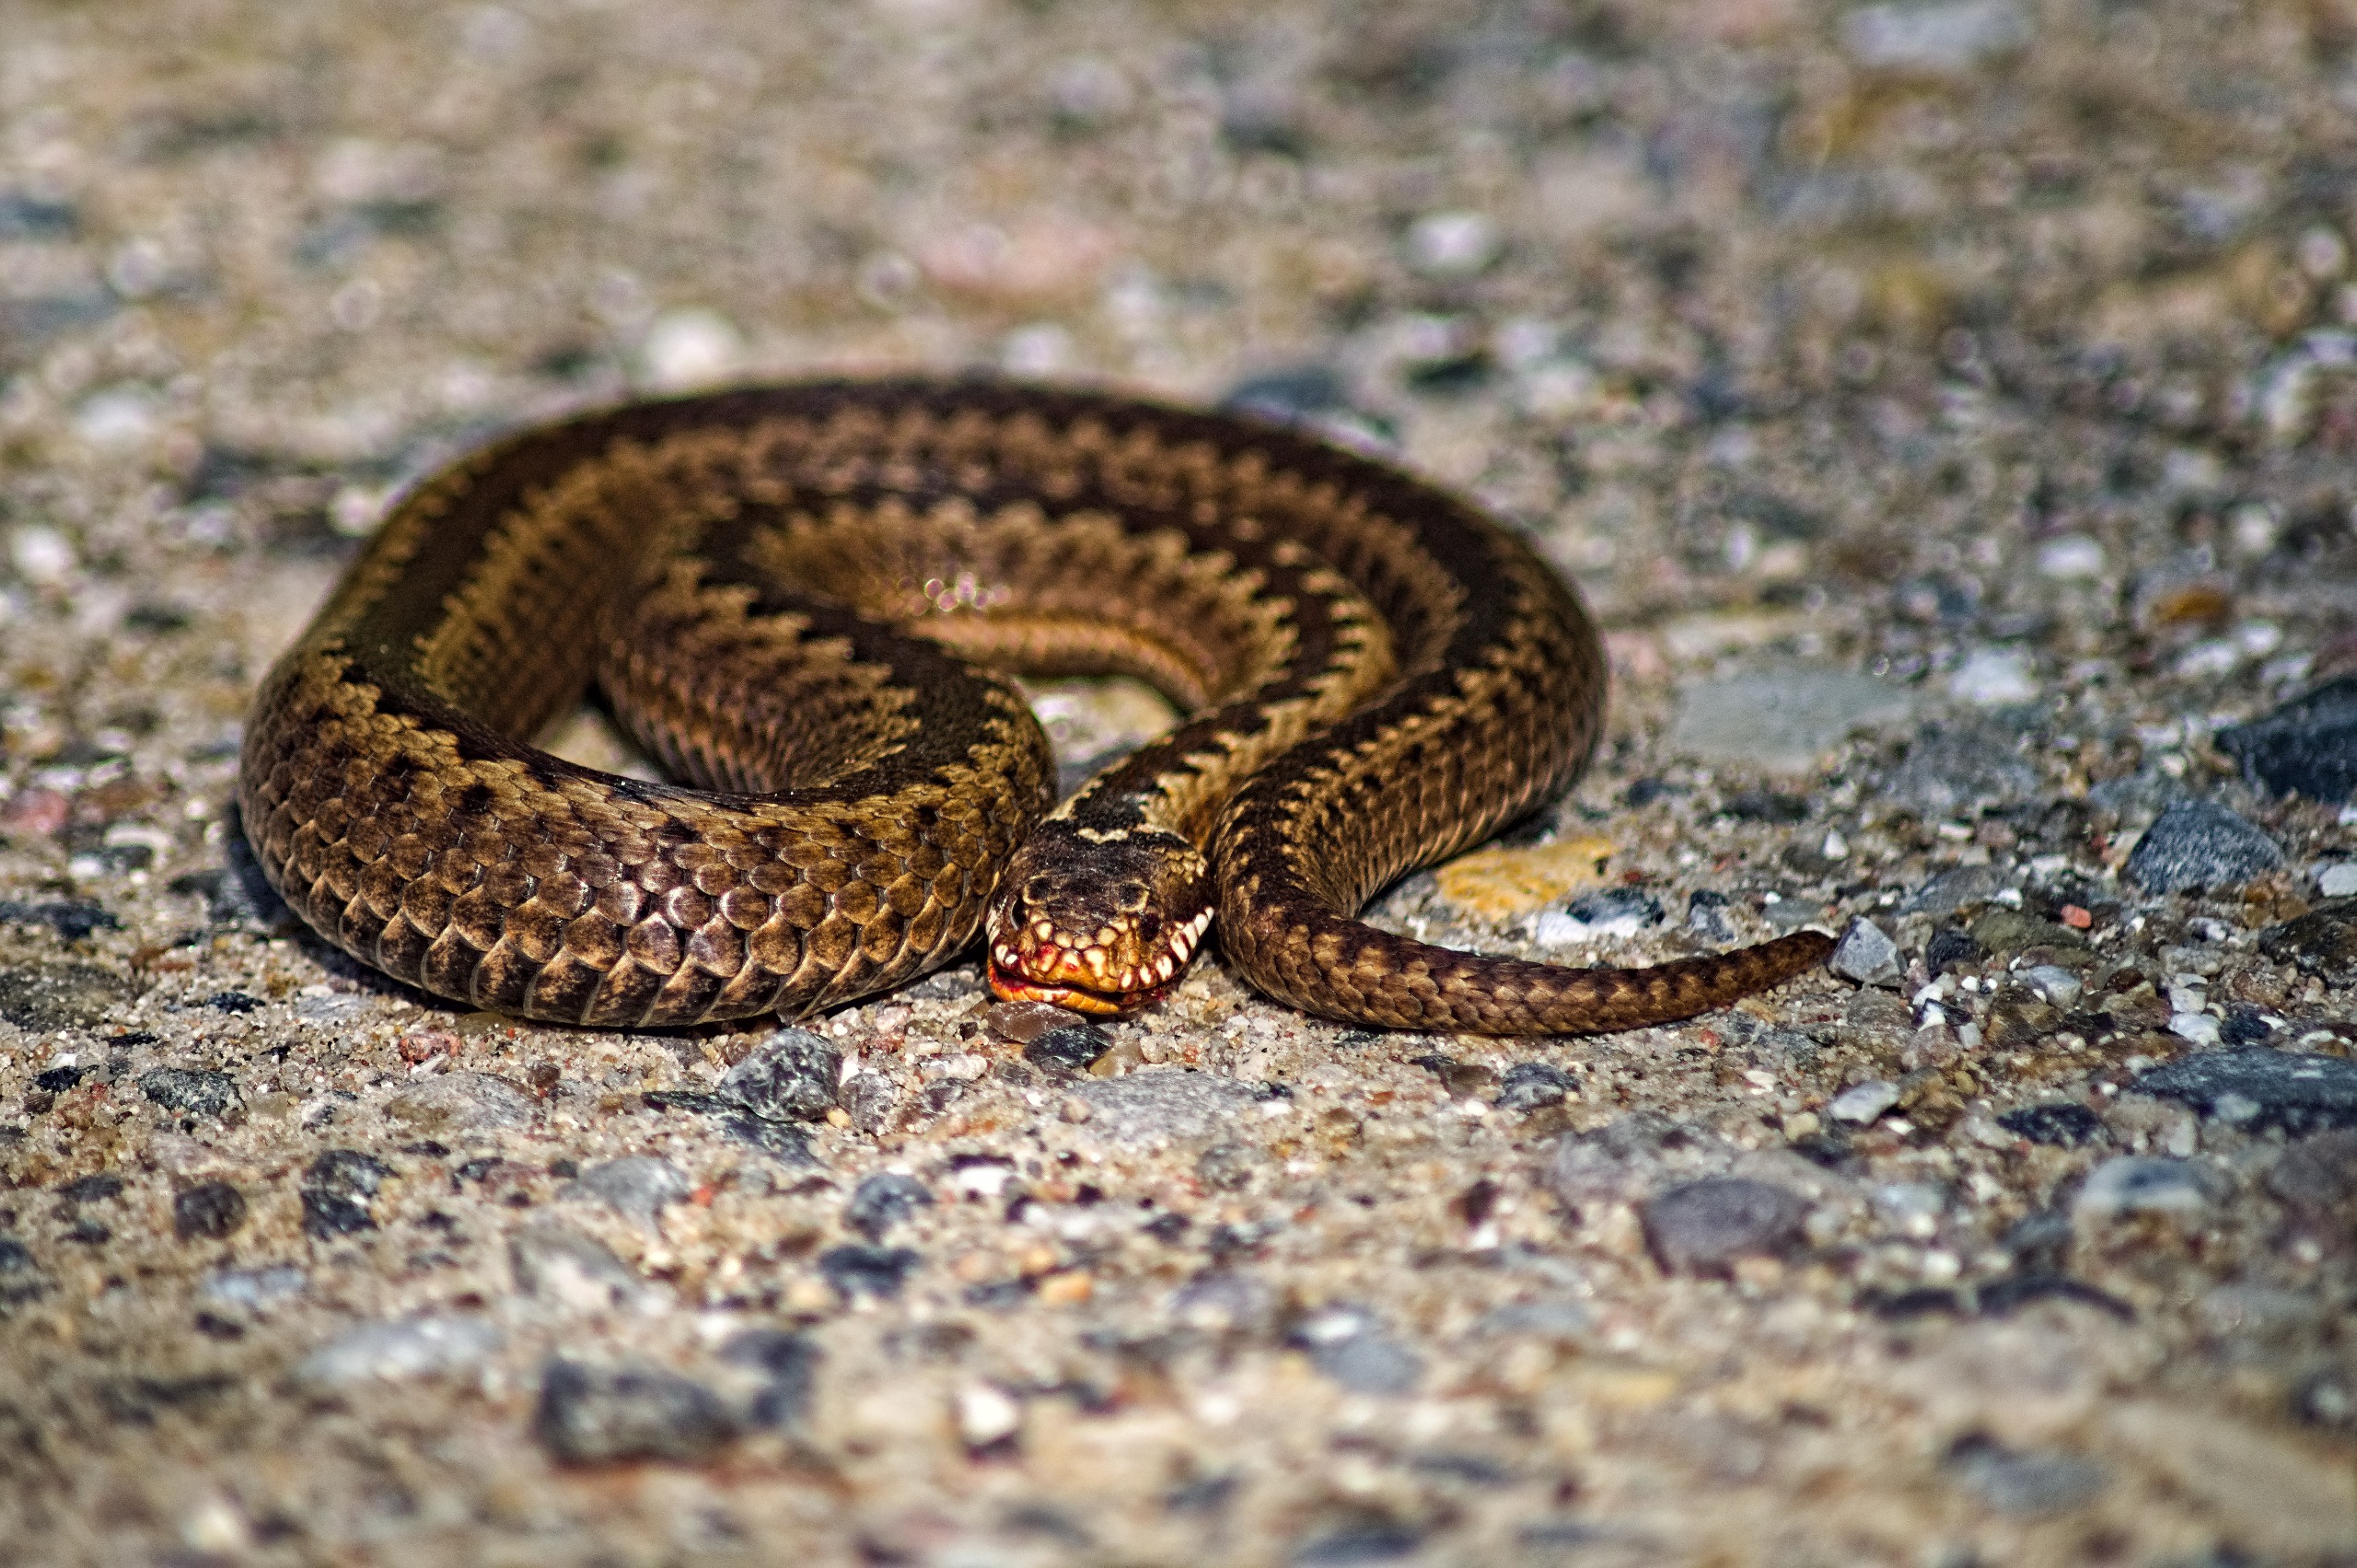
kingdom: Animalia
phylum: Chordata
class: Squamata
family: Viperidae
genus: Vipera
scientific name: Vipera berus
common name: Hugorm
